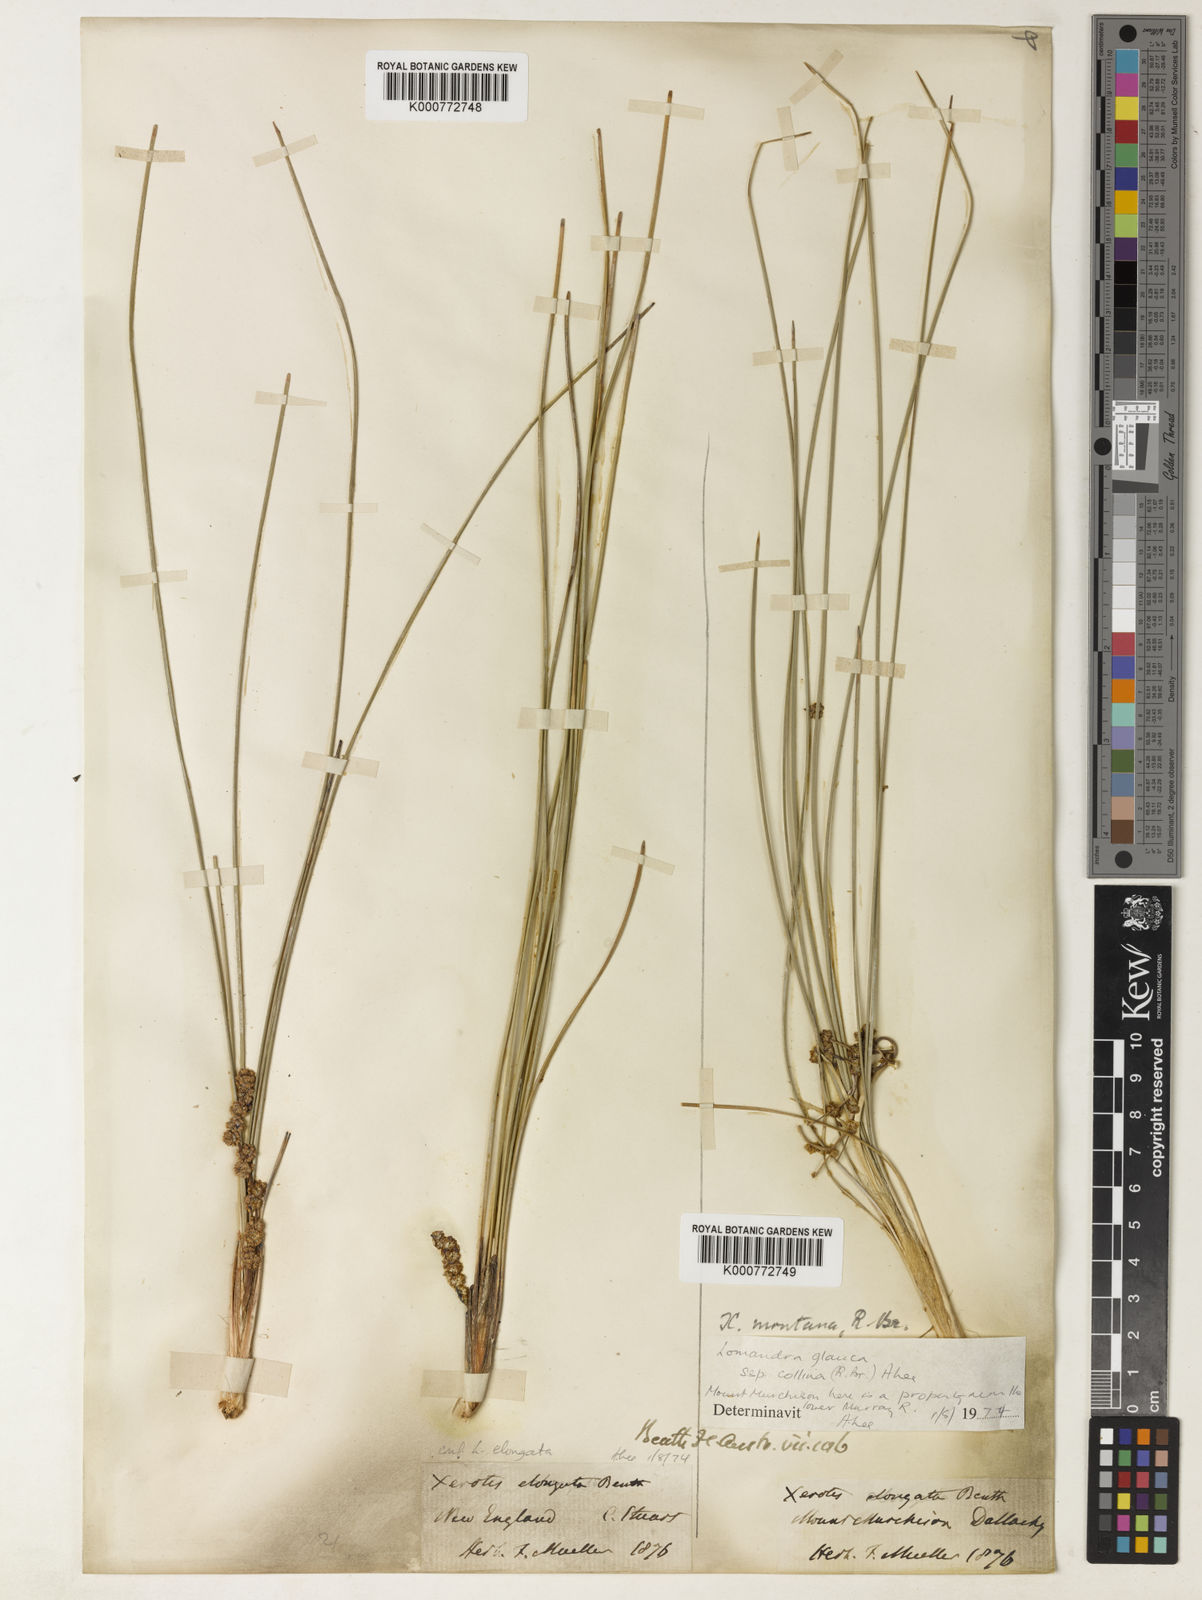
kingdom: Plantae
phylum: Tracheophyta
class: Liliopsida
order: Asparagales
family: Asparagaceae
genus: Lomandra
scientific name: Lomandra elongata
